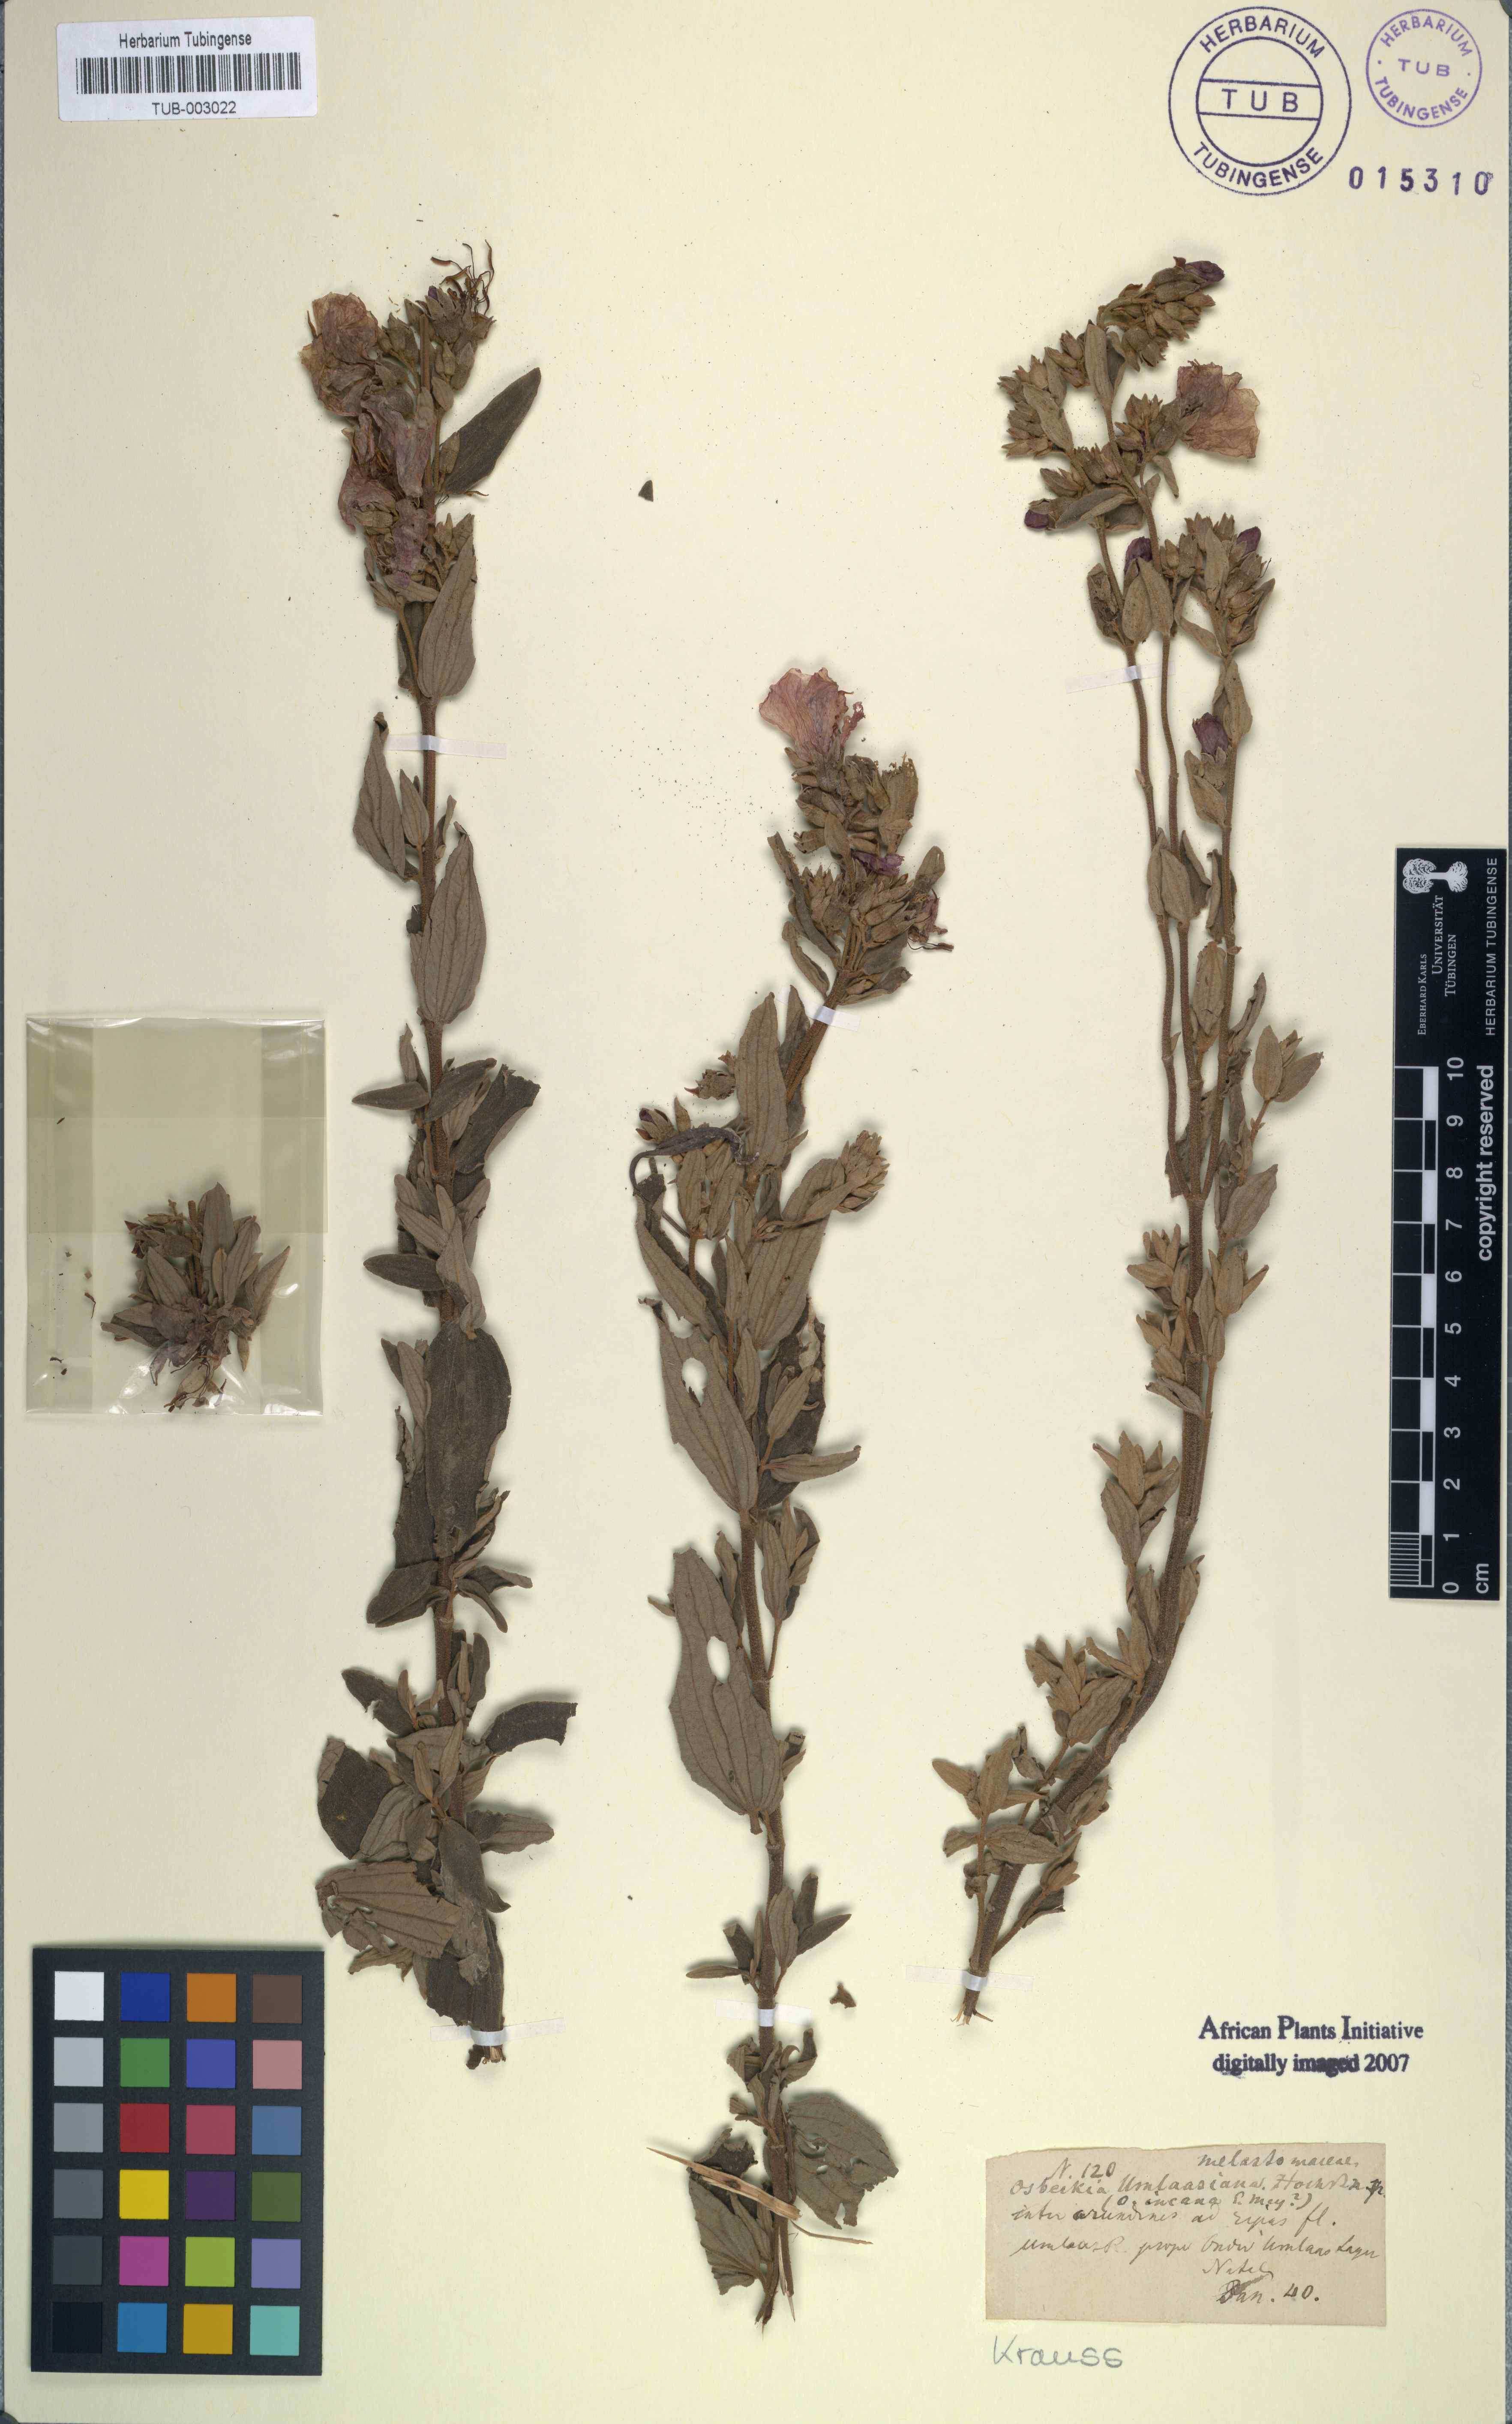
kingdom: Plantae
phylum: Tracheophyta
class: Magnoliopsida
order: Myrtales
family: Melastomataceae
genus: Argyrella
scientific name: Argyrella canescens
